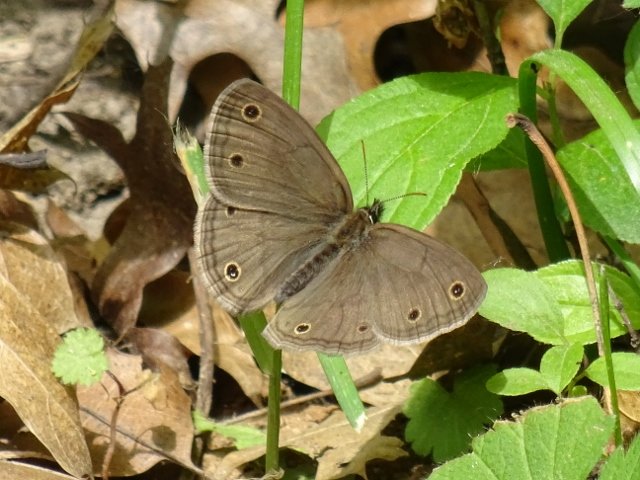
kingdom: Animalia
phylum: Arthropoda
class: Insecta
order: Lepidoptera
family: Nymphalidae
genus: Euptychia
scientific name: Euptychia cymela
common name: Little Wood Satyr
